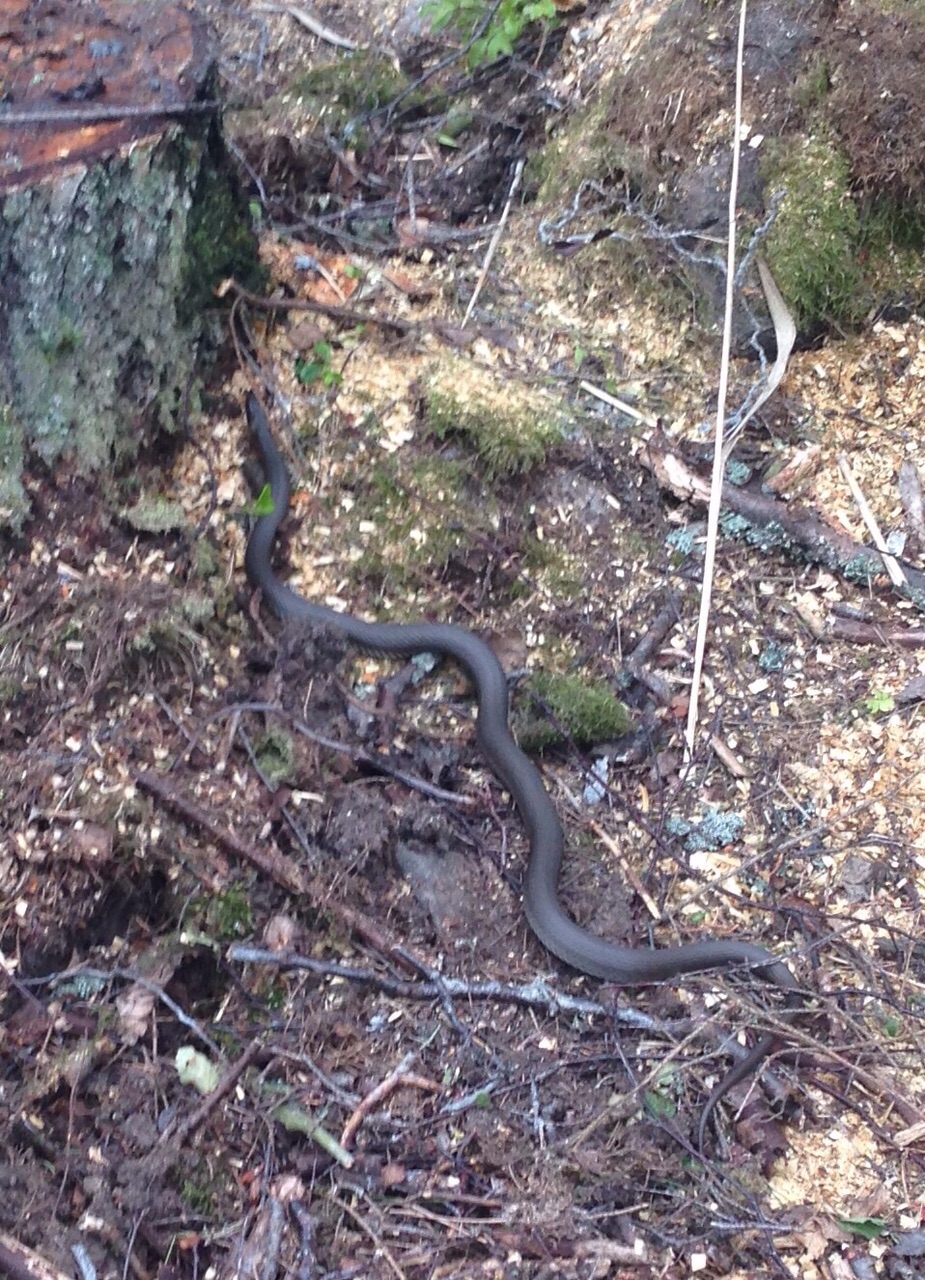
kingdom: Animalia
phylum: Chordata
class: Squamata
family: Colubridae
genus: Natrix
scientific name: Natrix natrix
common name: Grass snake
